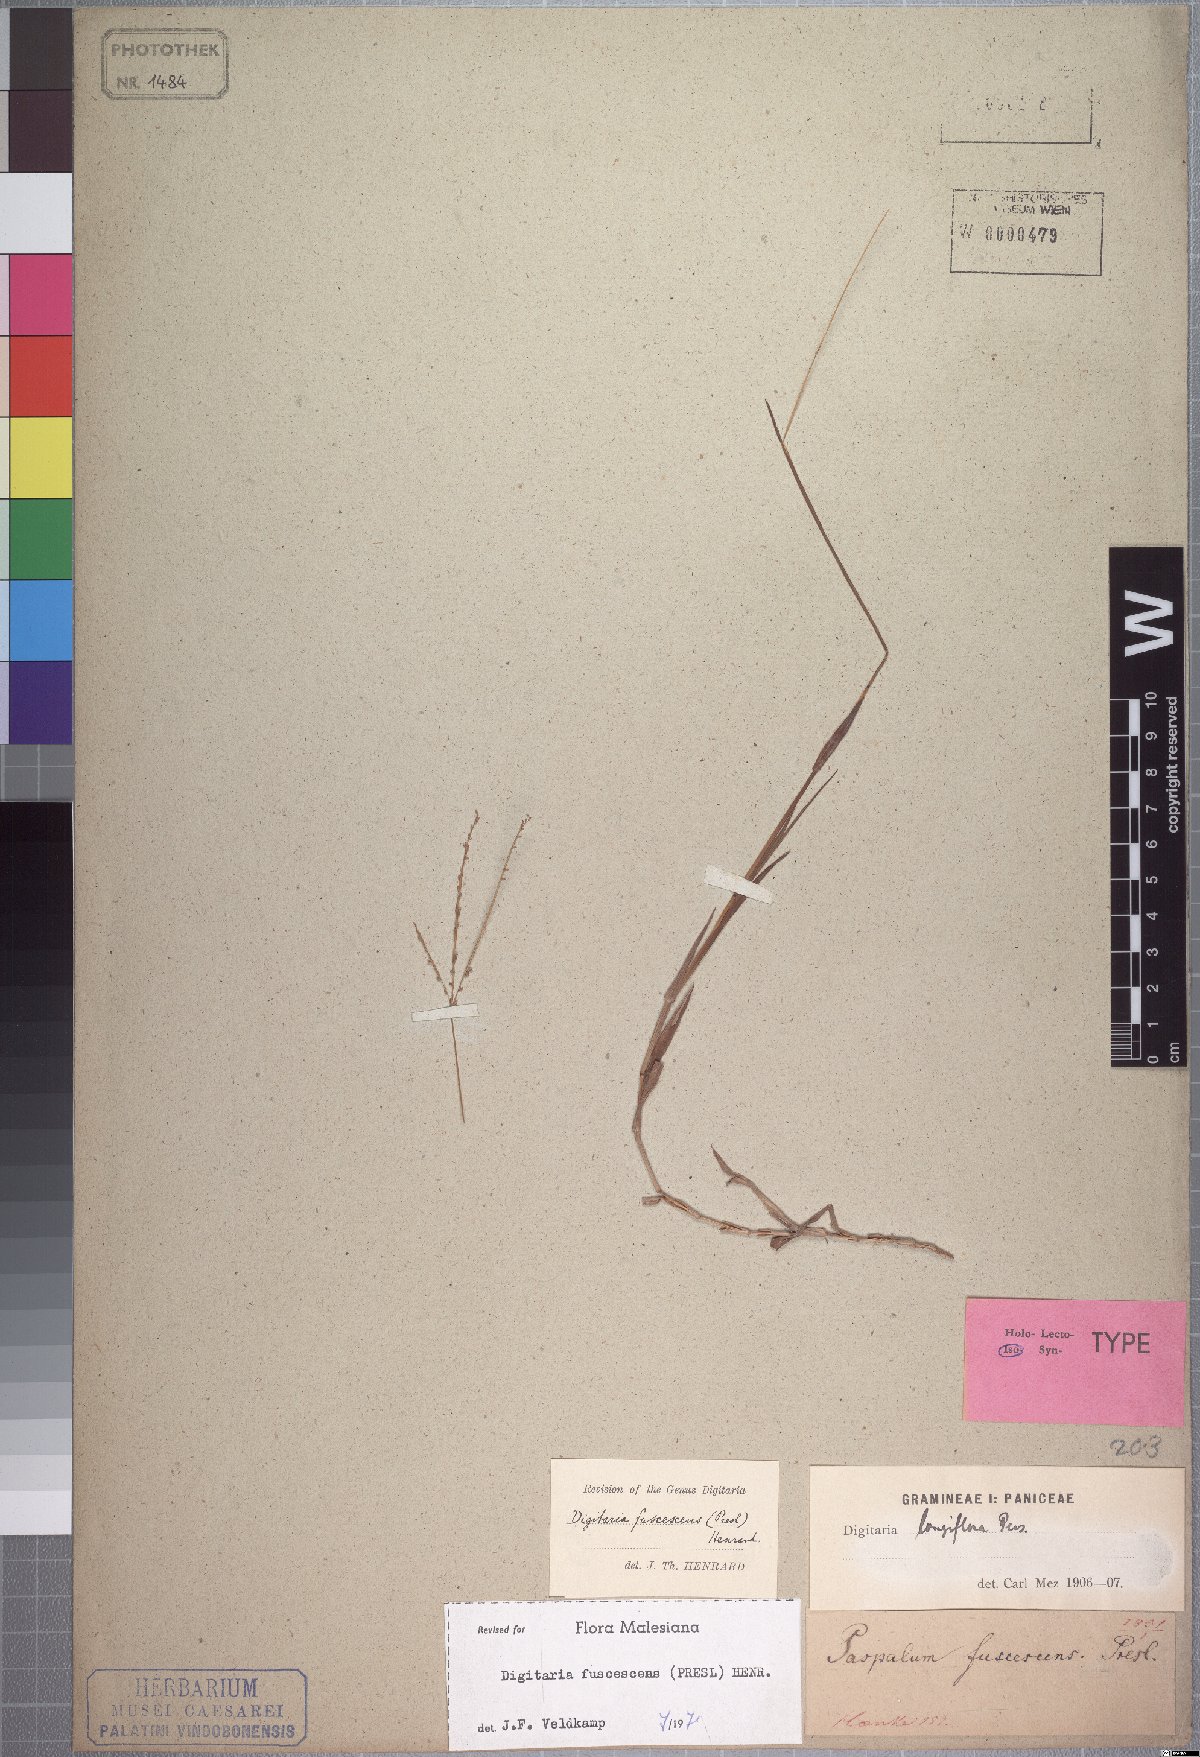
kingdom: Plantae
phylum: Tracheophyta
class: Liliopsida
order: Poales
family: Poaceae
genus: Digitaria
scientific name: Digitaria fuscescens
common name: Yellow crabgrass
